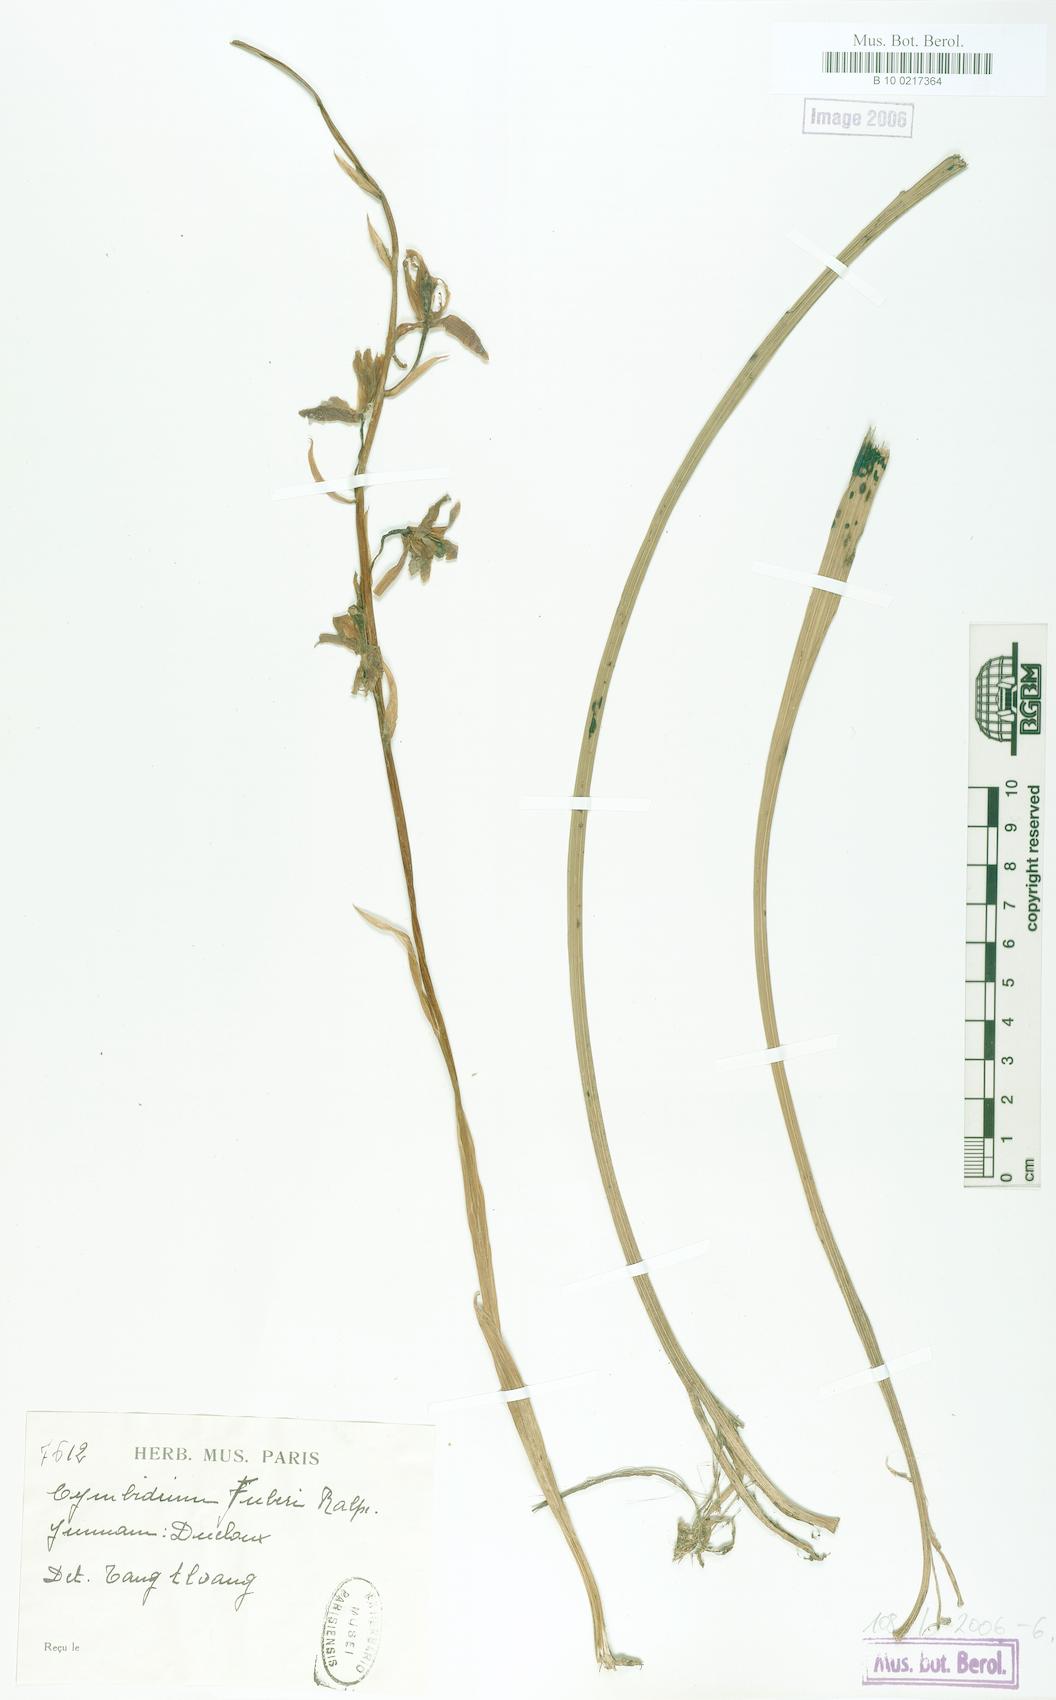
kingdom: Plantae
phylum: Tracheophyta
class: Liliopsida
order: Asparagales
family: Orchidaceae
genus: Cymbidium
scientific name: Cymbidium
